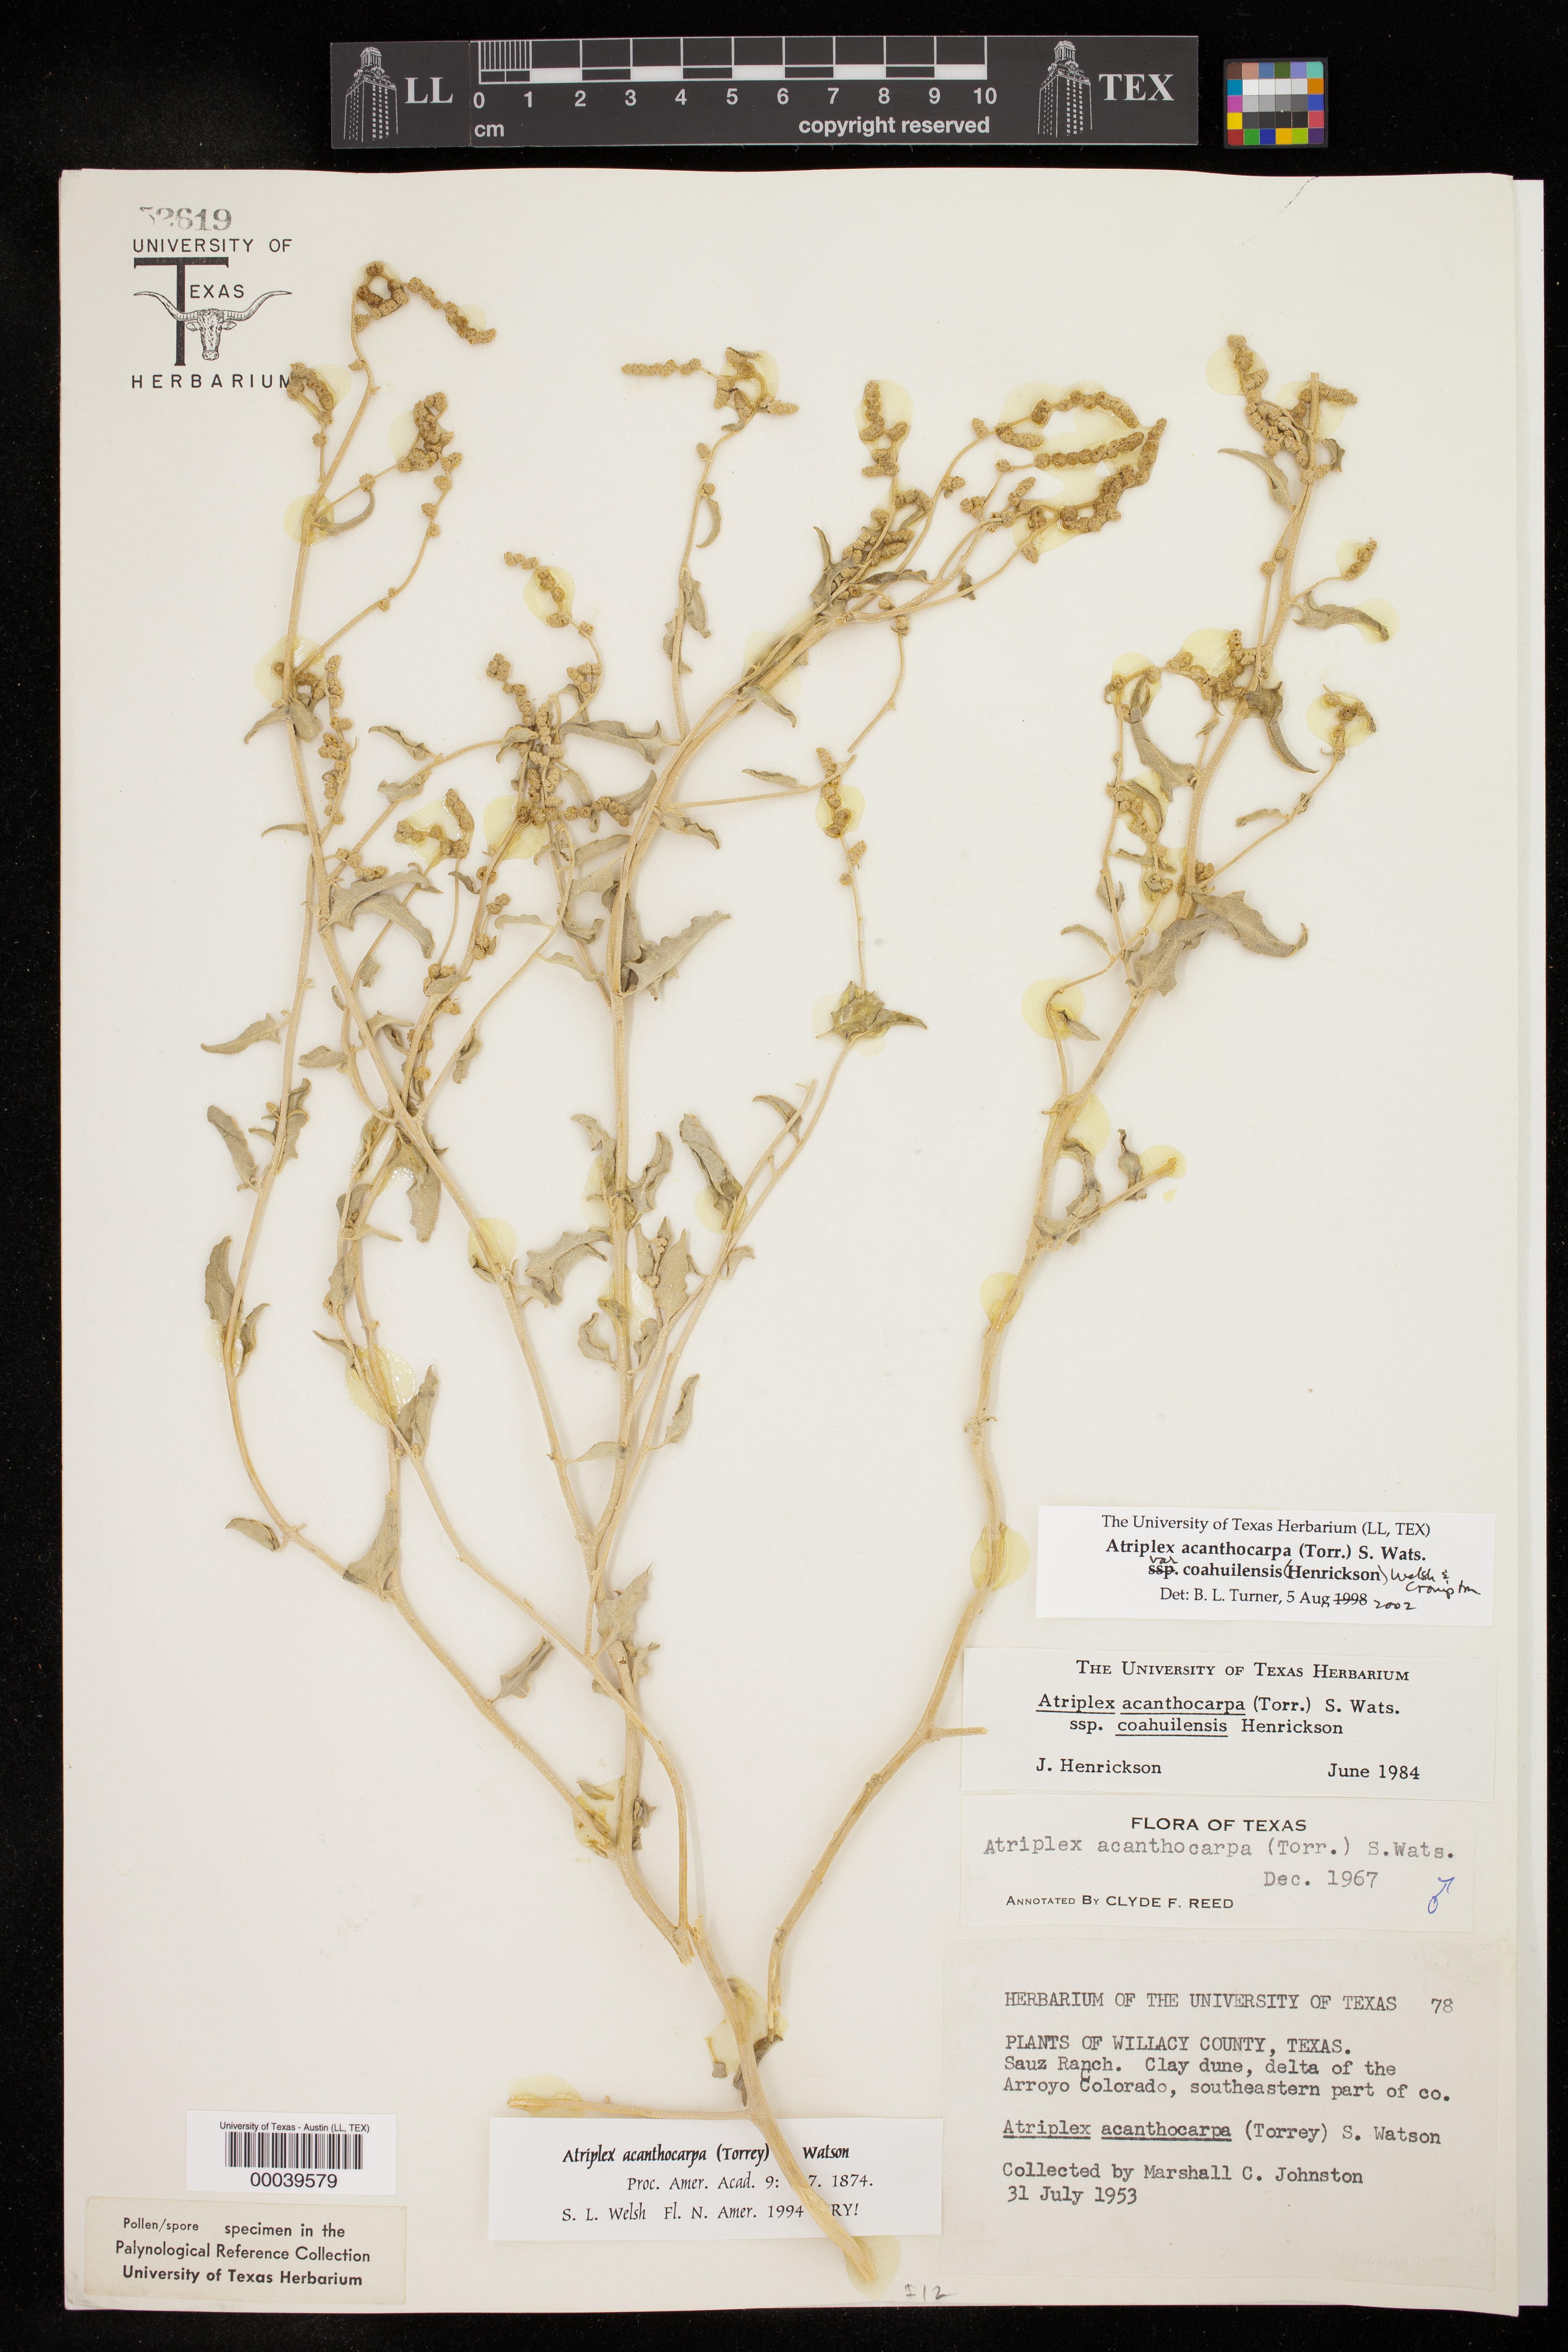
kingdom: Plantae
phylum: Tracheophyta
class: Magnoliopsida
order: Caryophyllales
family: Amaranthaceae
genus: Atriplex
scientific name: Atriplex acanthocarpa
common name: Burscale
